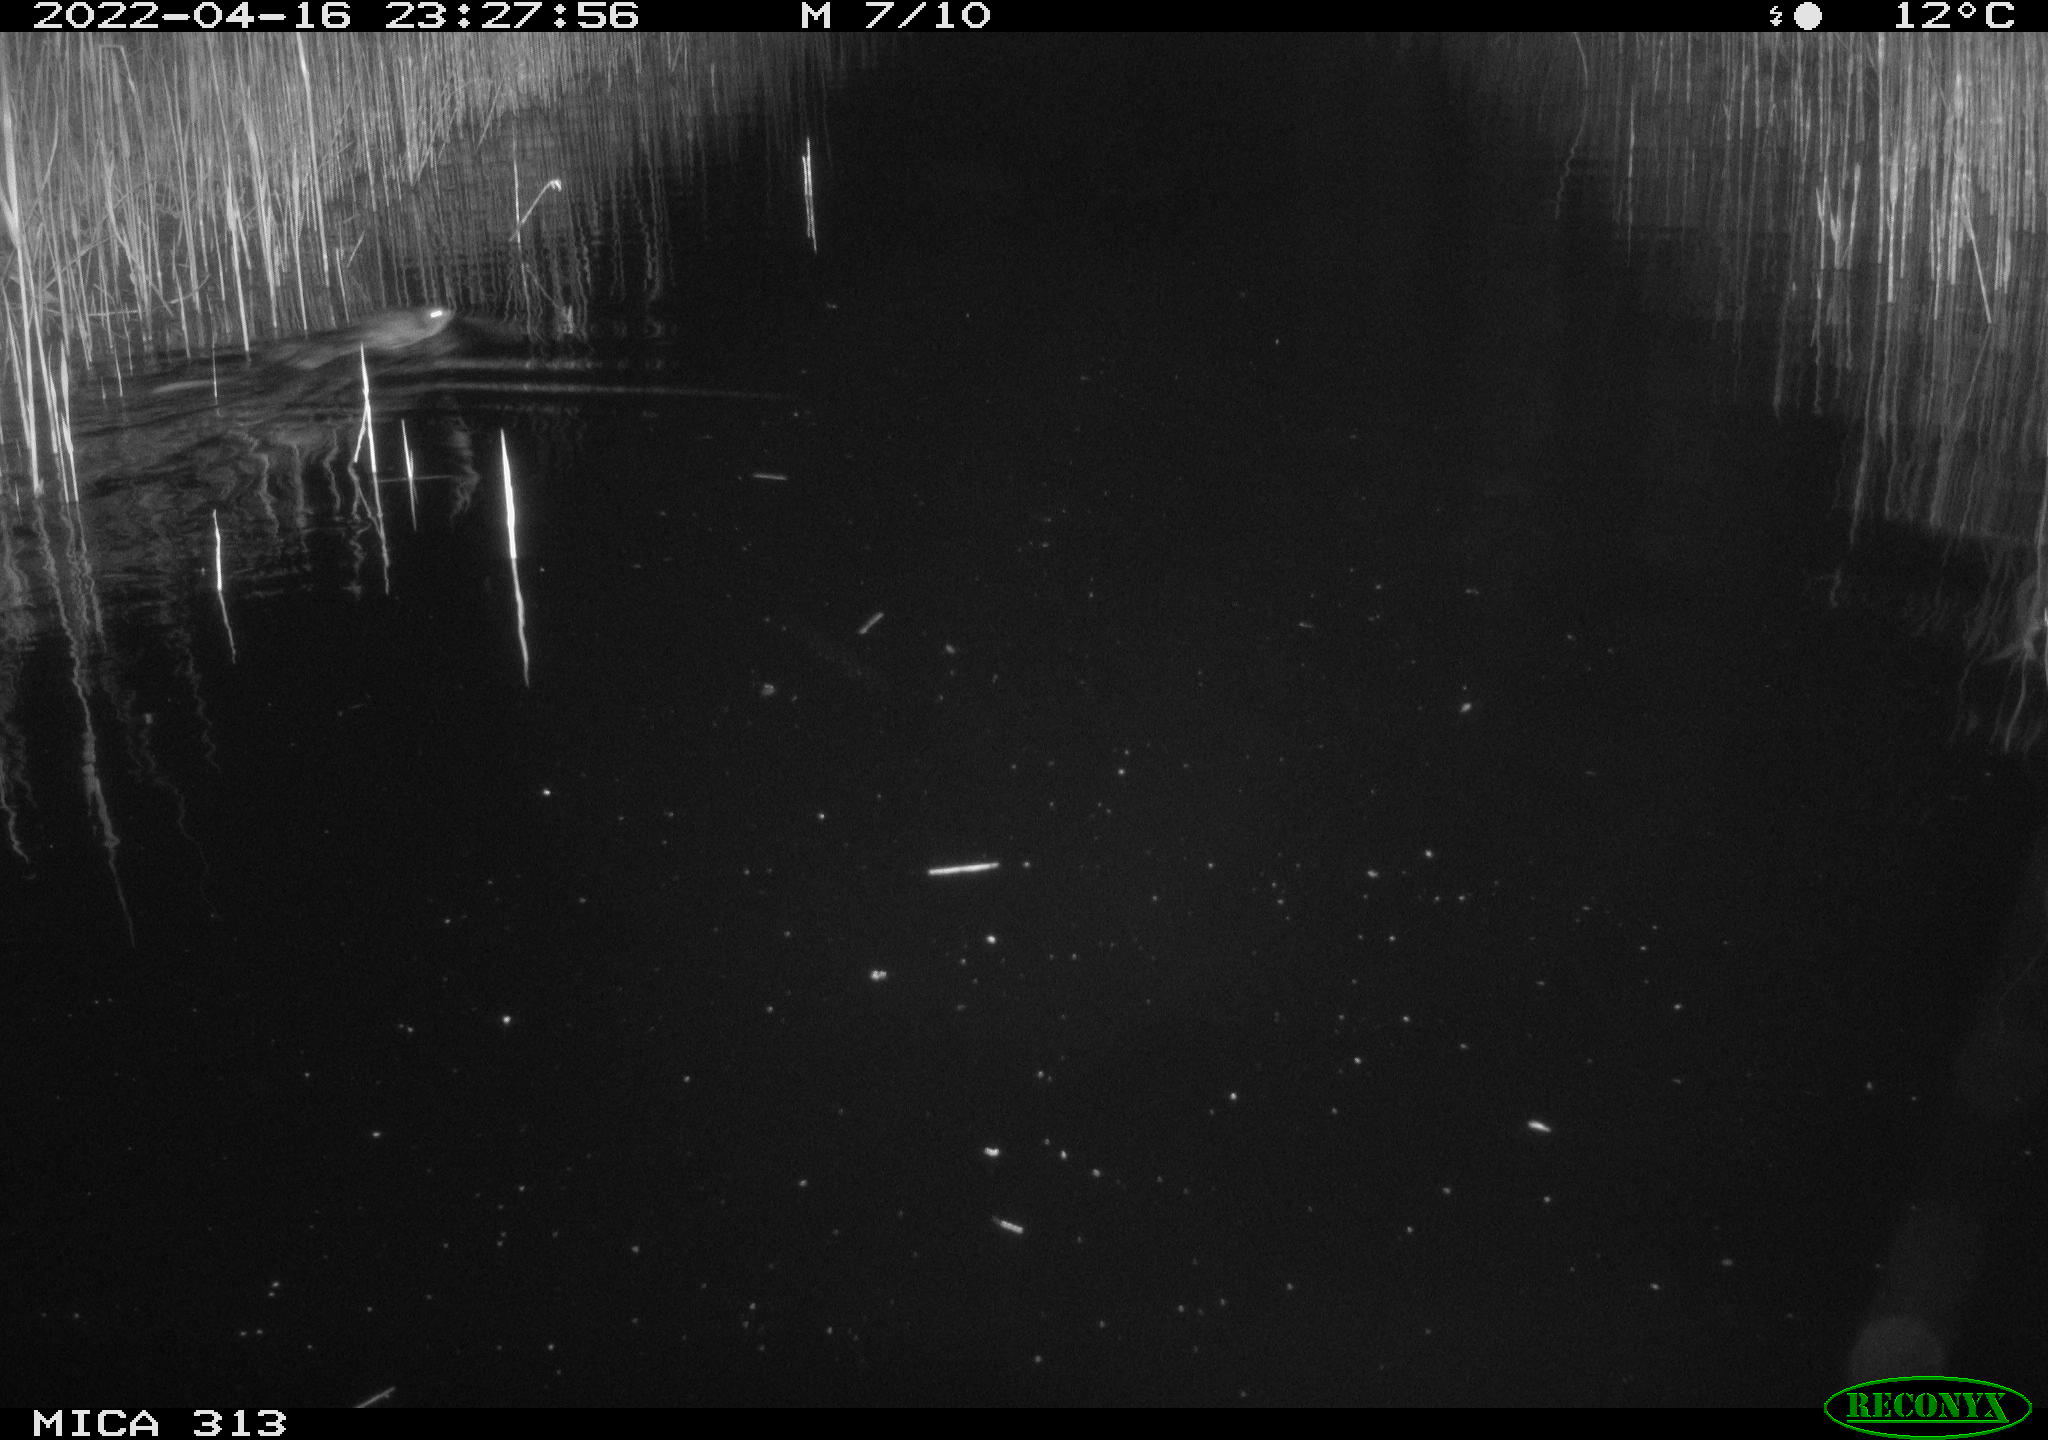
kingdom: Animalia
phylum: Chordata
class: Mammalia
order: Rodentia
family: Muridae
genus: Rattus
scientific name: Rattus norvegicus
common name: Brown rat
